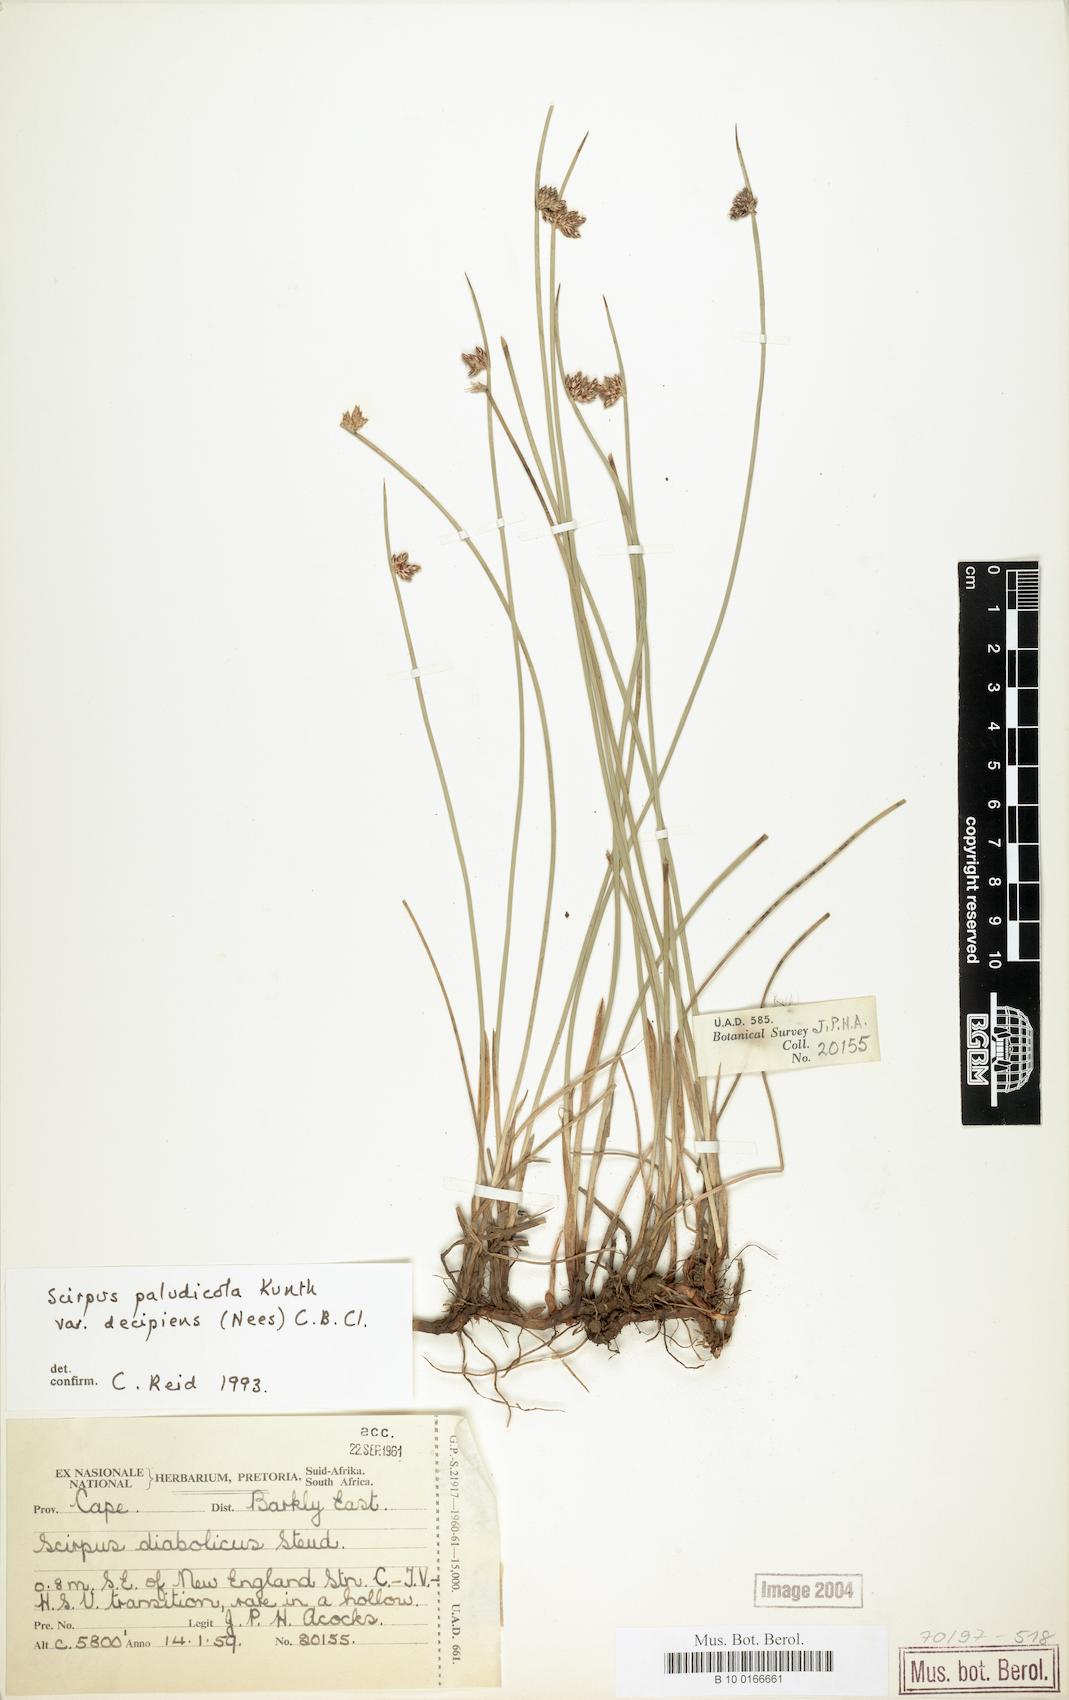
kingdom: Plantae
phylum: Tracheophyta
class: Liliopsida
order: Poales
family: Cyperaceae
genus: Schoenoplectiella
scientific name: Schoenoplectiella decipiens
